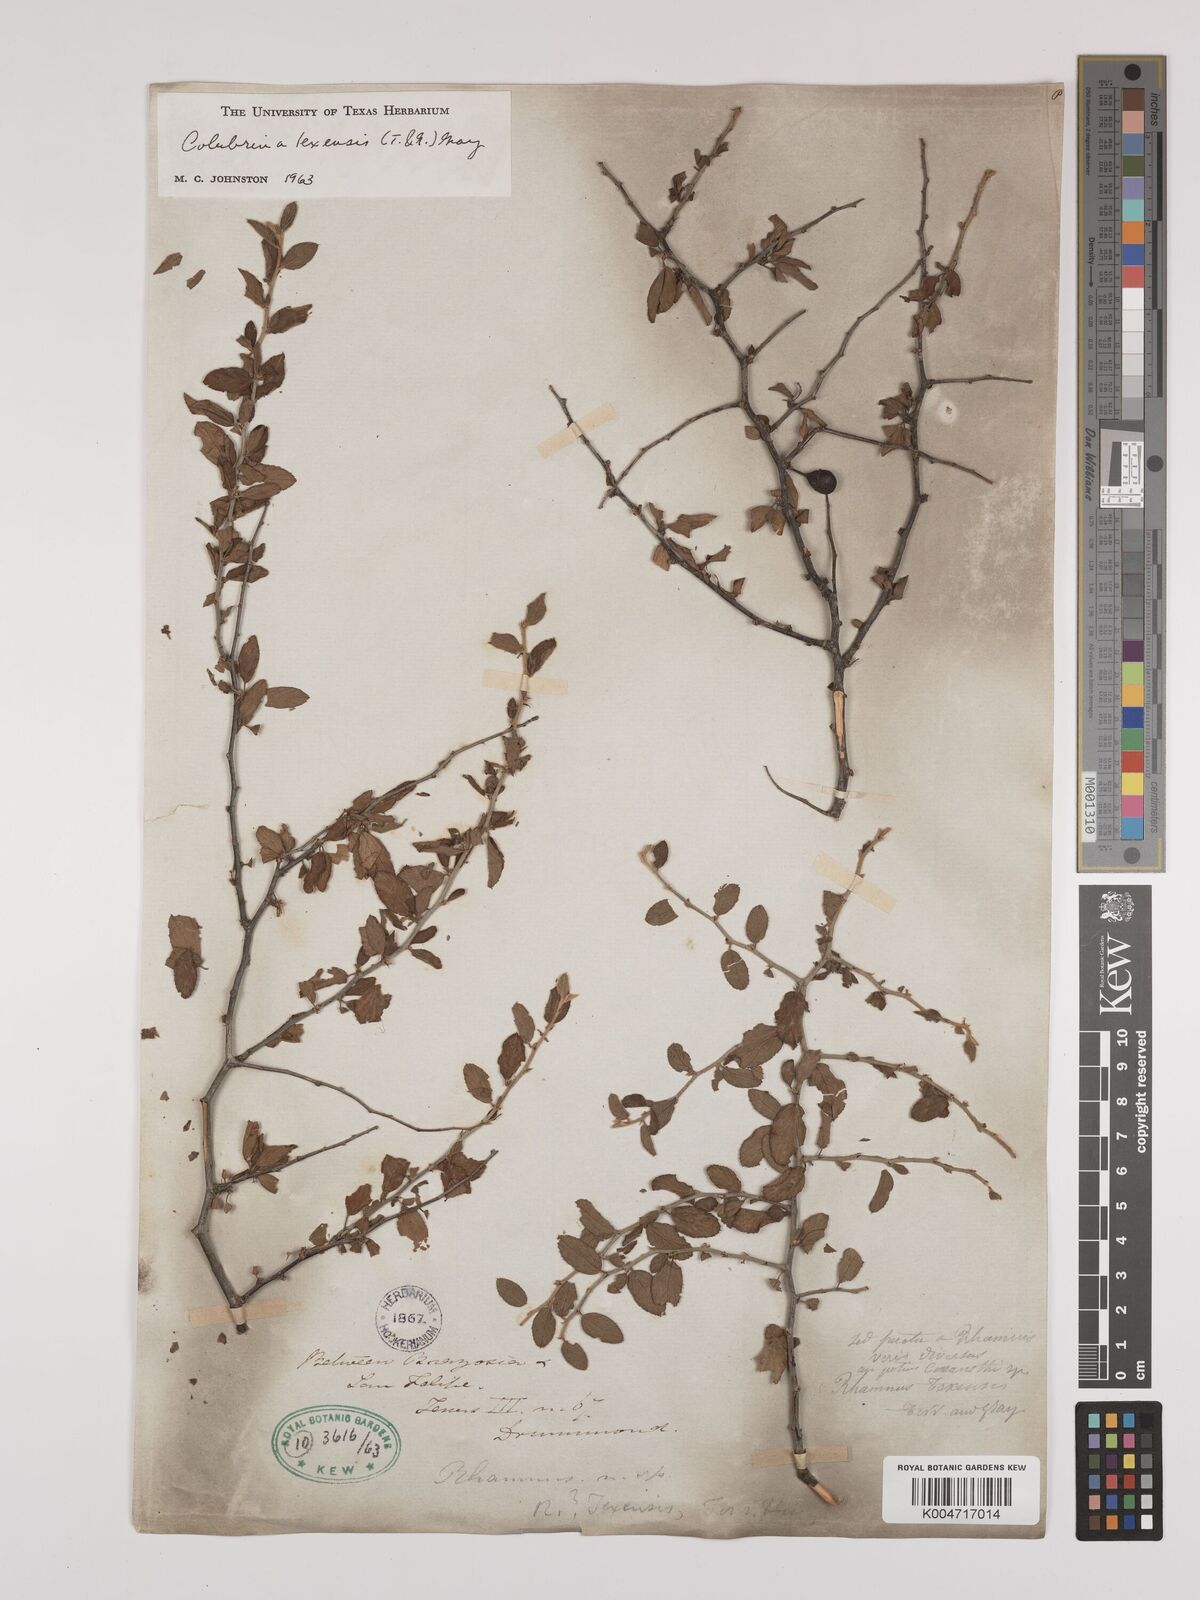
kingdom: Plantae
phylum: Tracheophyta
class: Magnoliopsida
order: Rosales
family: Rhamnaceae
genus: Colubrina
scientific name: Colubrina texensis
